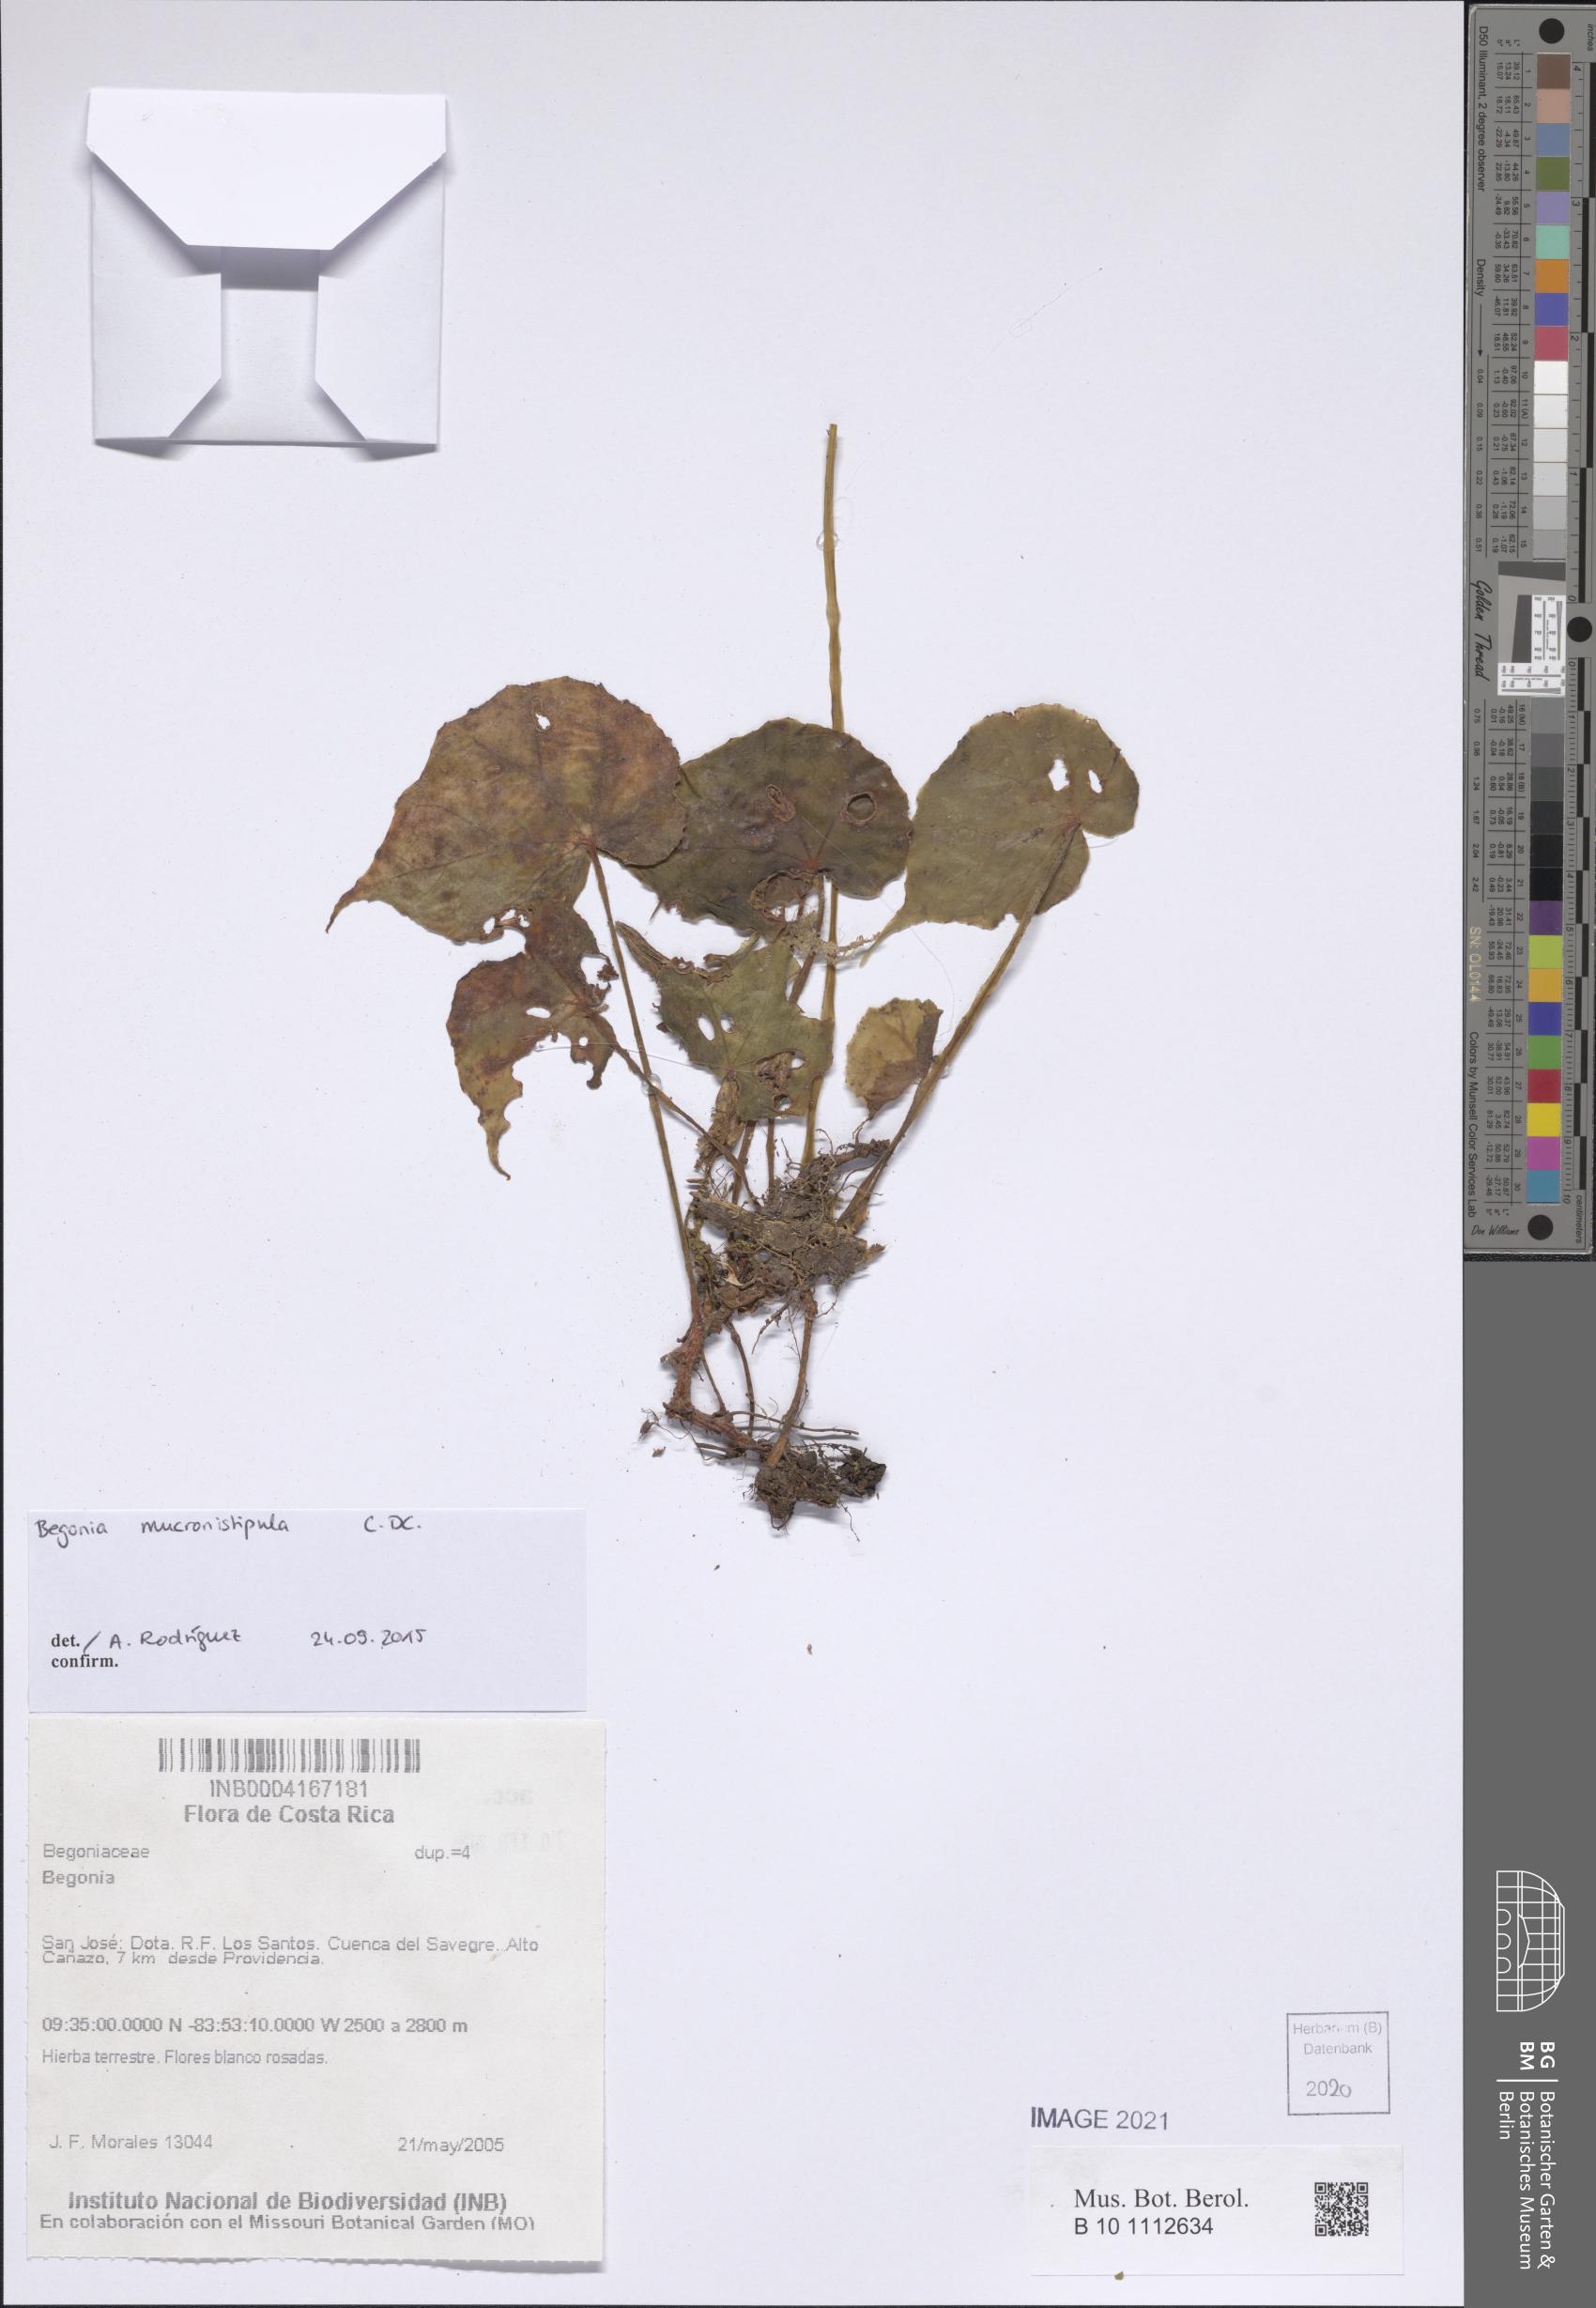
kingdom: Plantae
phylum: Tracheophyta
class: Magnoliopsida
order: Cucurbitales
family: Begoniaceae
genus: Begonia
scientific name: Begonia mucronistipula
